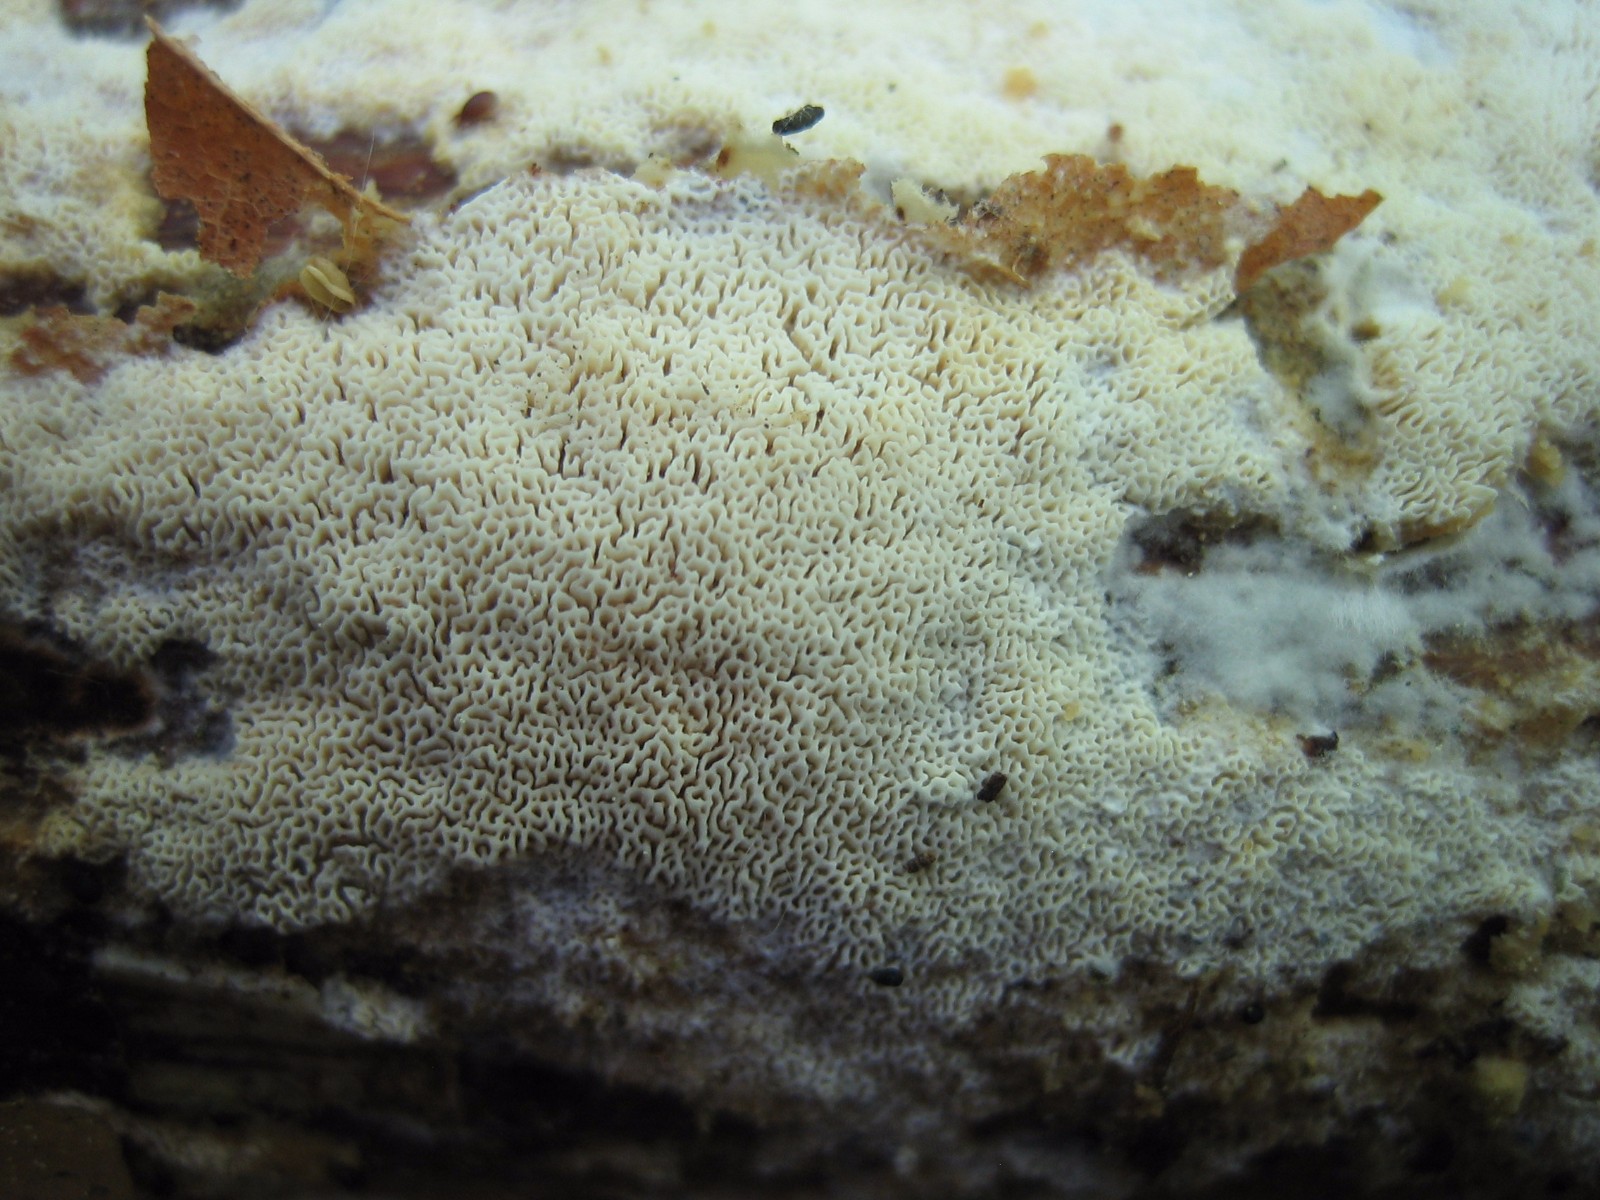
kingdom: Fungi
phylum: Basidiomycota
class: Agaricomycetes
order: Hymenochaetales
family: Schizoporaceae
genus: Xylodon
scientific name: Xylodon subtropicus
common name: labyrint-tandsvamp
